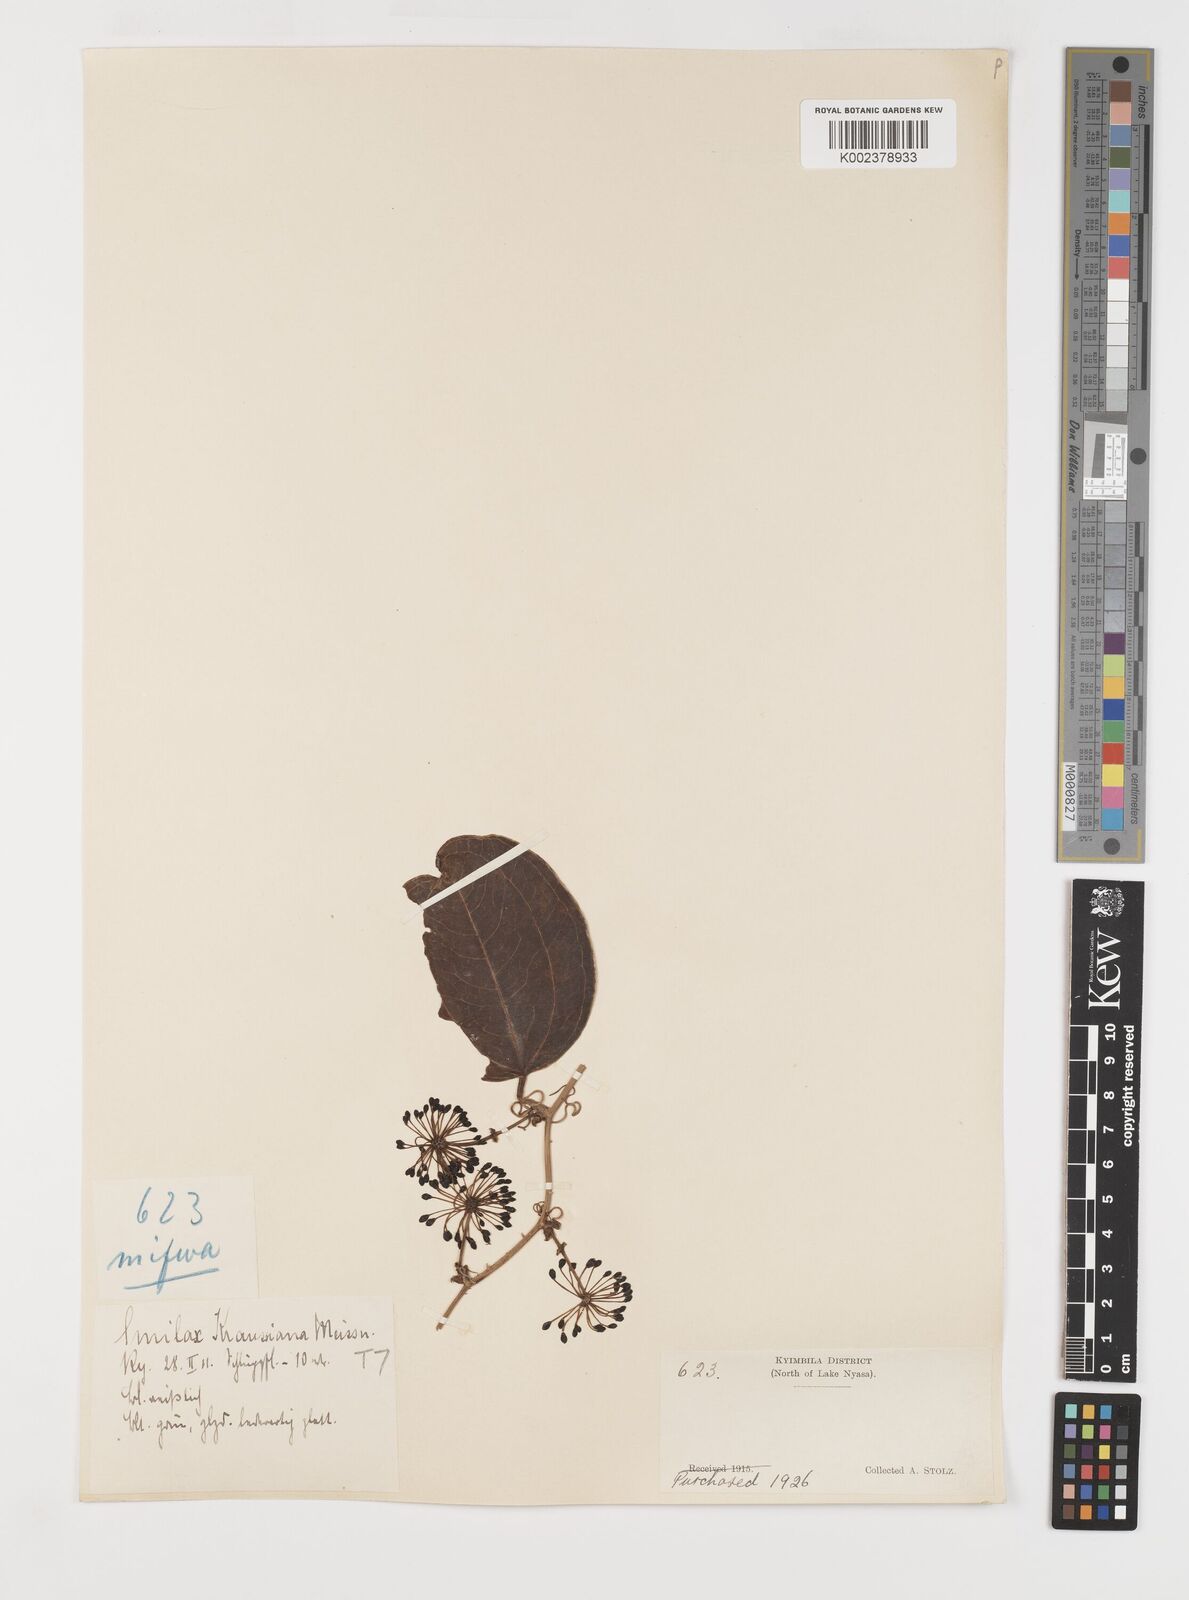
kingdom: Plantae
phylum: Tracheophyta
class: Liliopsida
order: Liliales
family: Smilacaceae
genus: Smilax
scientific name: Smilax anceps
